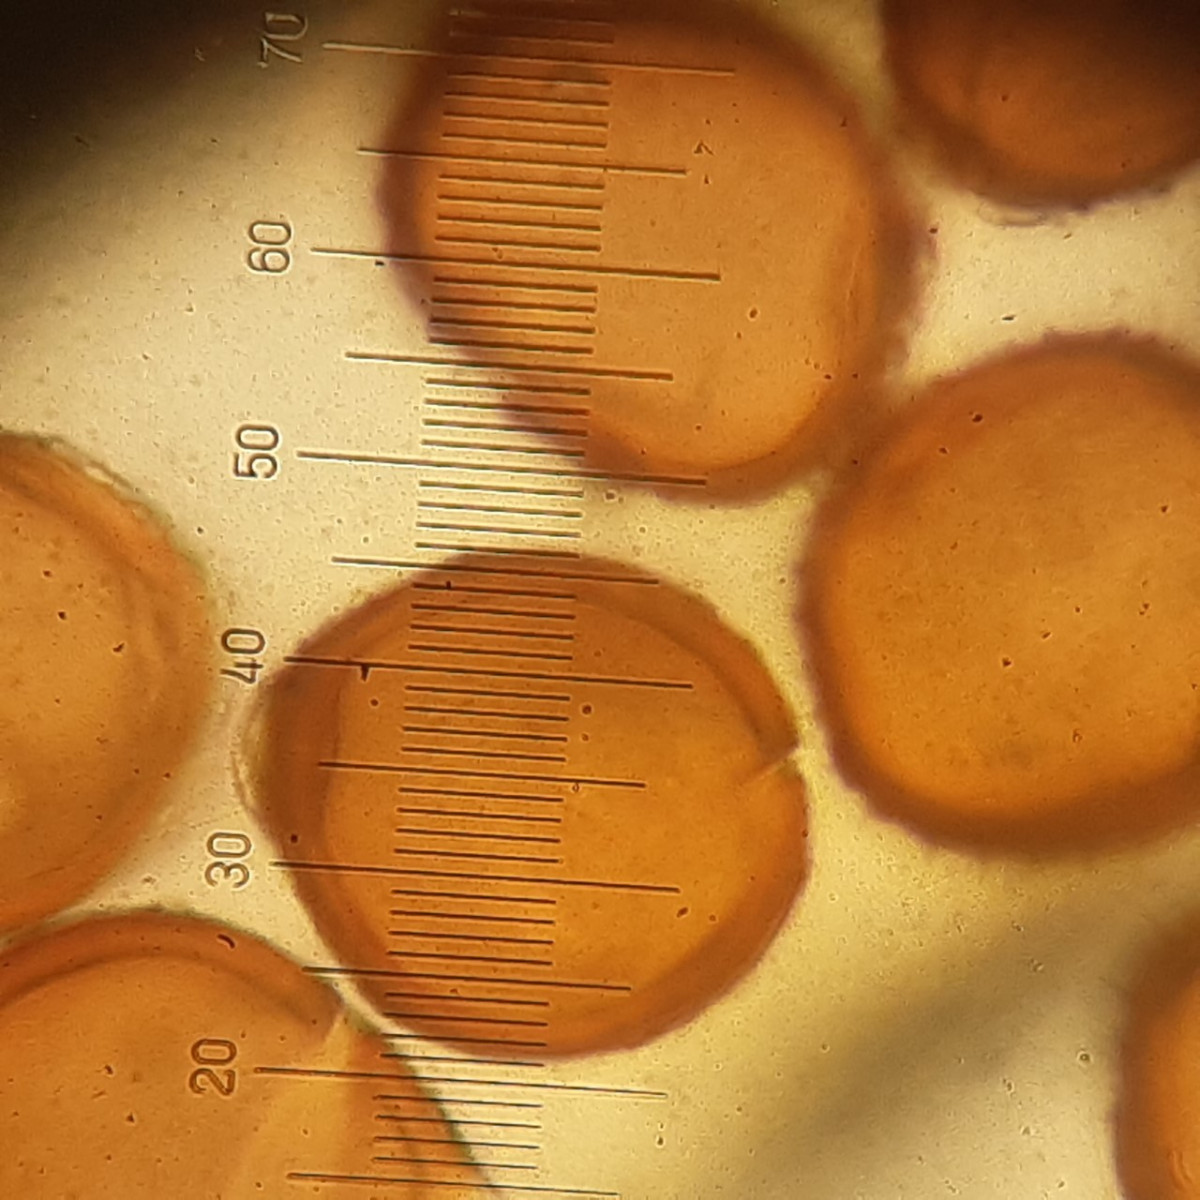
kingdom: Fungi
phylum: Basidiomycota
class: Pucciniomycetes
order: Pucciniales
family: Pucciniaceae
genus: Puccinia
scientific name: Puccinia variabilis
